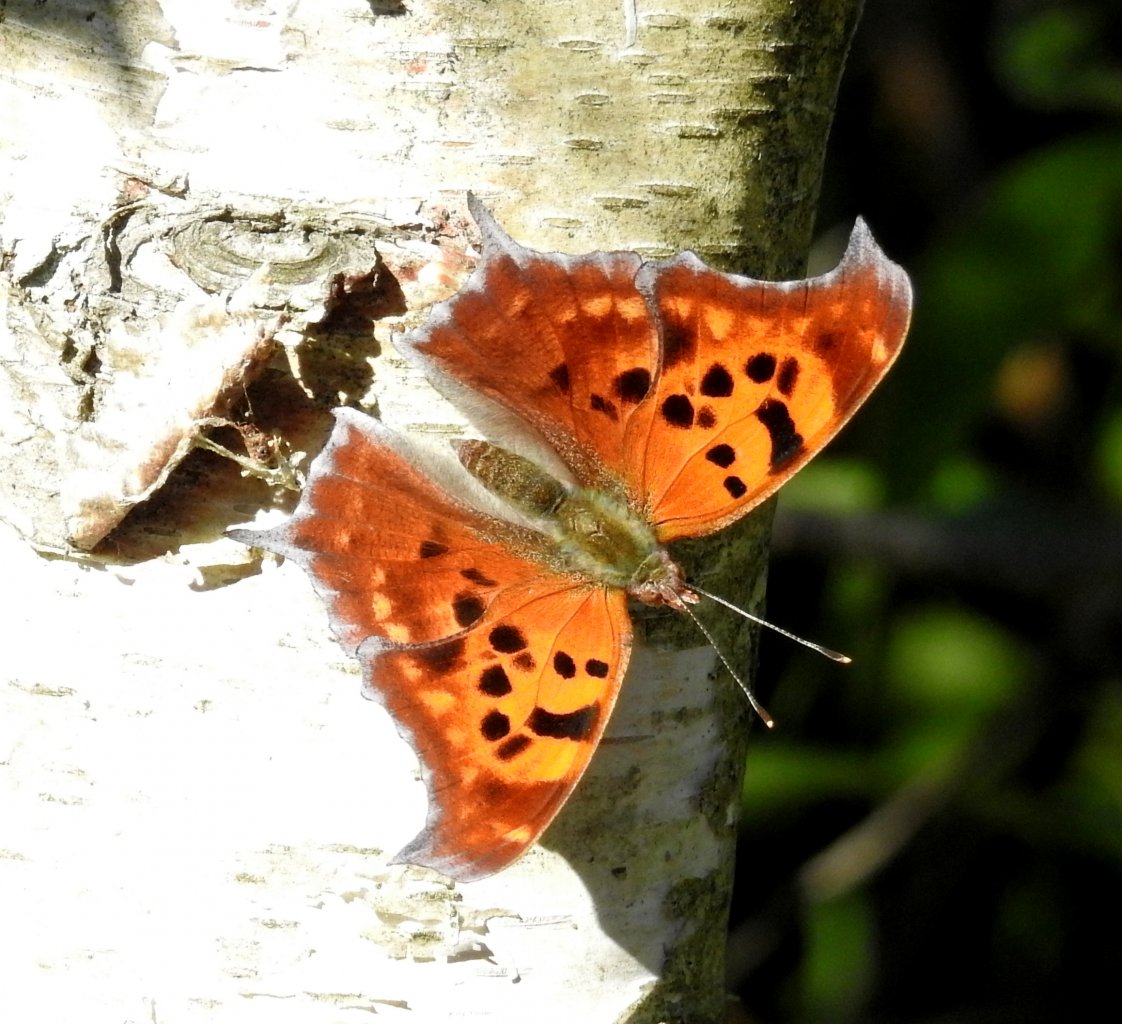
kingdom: Animalia
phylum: Arthropoda
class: Insecta
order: Lepidoptera
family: Nymphalidae
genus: Polygonia
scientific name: Polygonia interrogationis
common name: Question Mark
